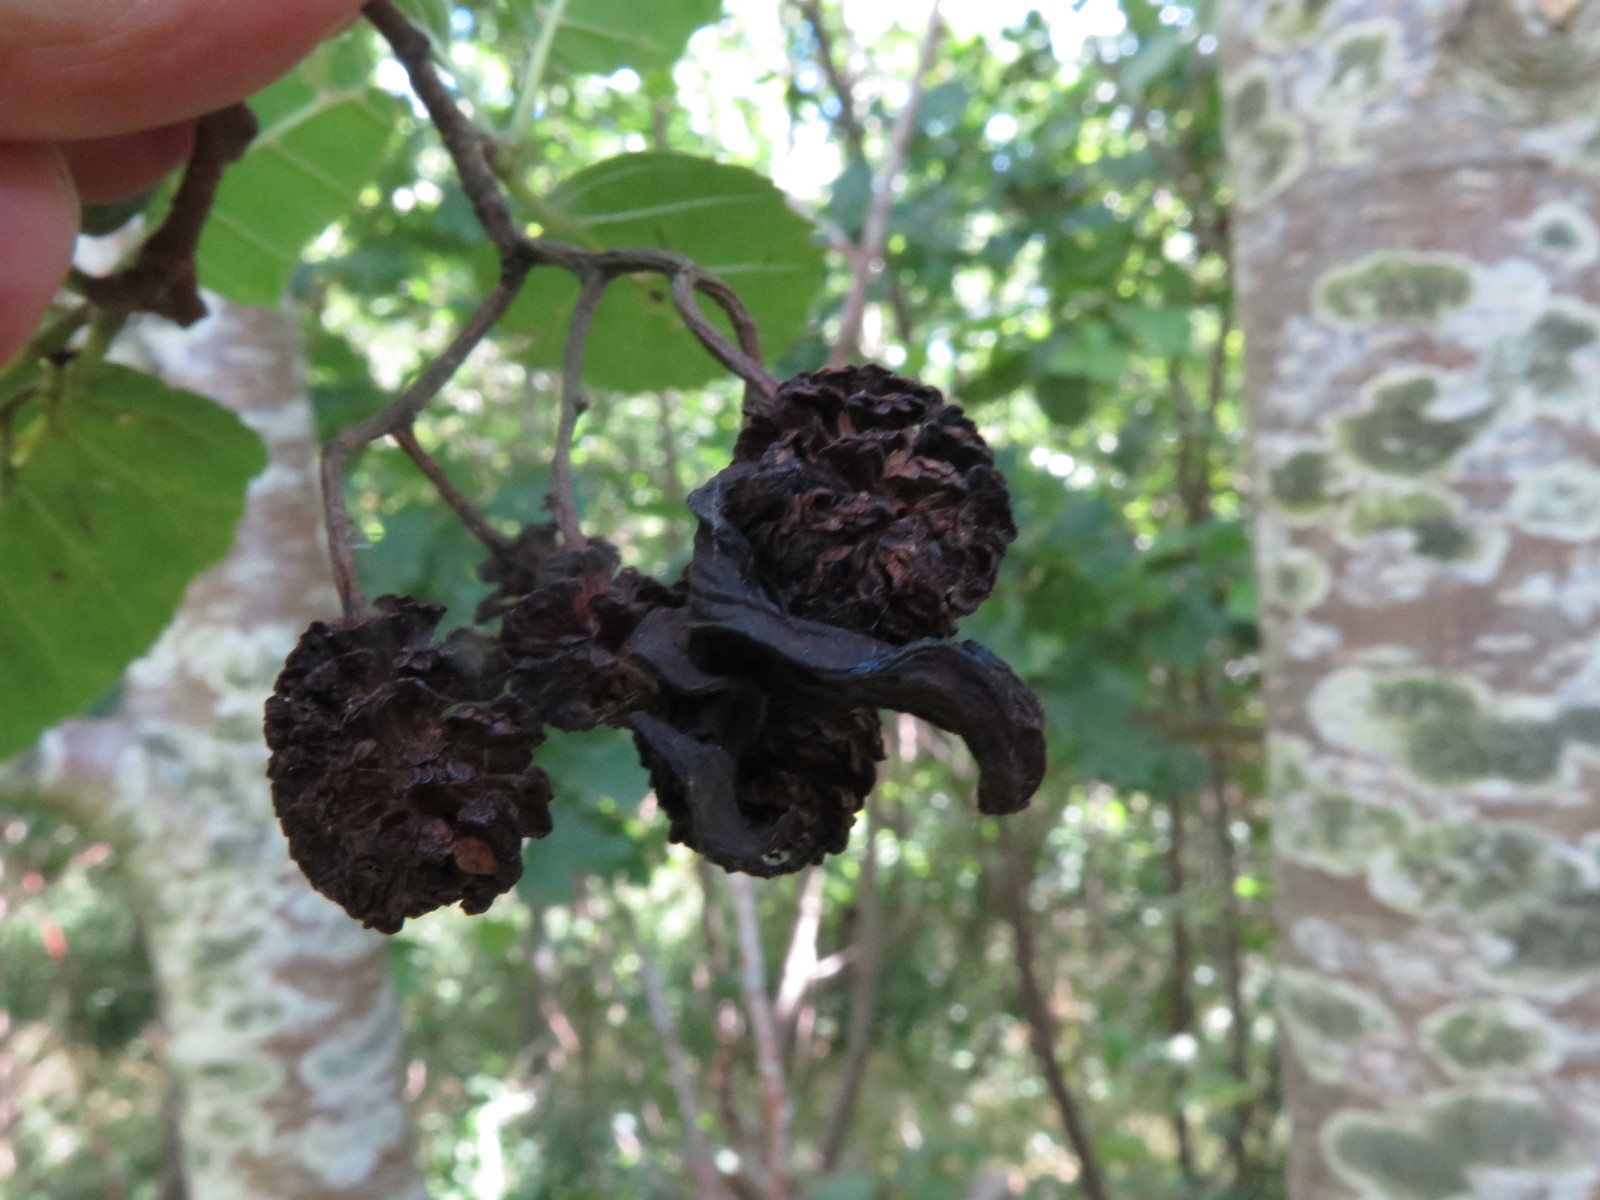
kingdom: Fungi
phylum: Ascomycota
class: Taphrinomycetes
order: Taphrinales
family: Taphrinaceae
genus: Taphrina
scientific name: Taphrina alni
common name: Alder tongue
